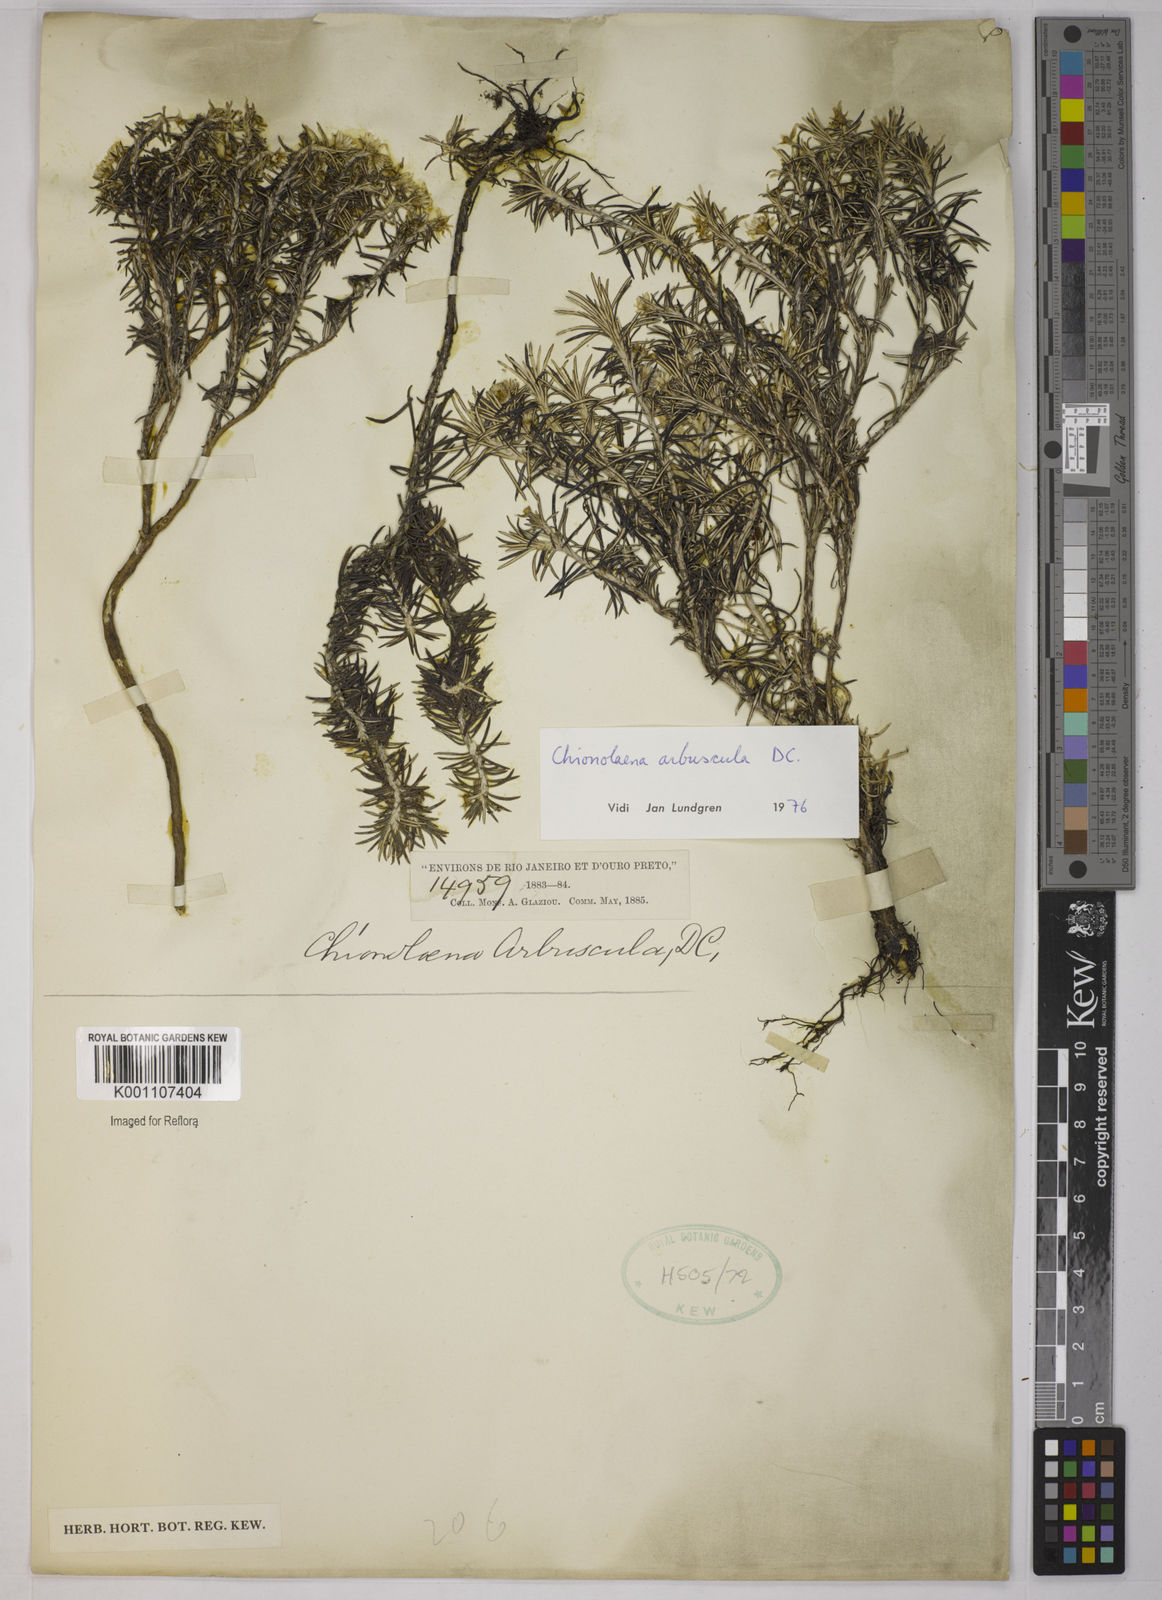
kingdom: Plantae
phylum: Tracheophyta
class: Magnoliopsida
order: Asterales
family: Asteraceae
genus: Chionolaena
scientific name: Chionolaena arbuscula
